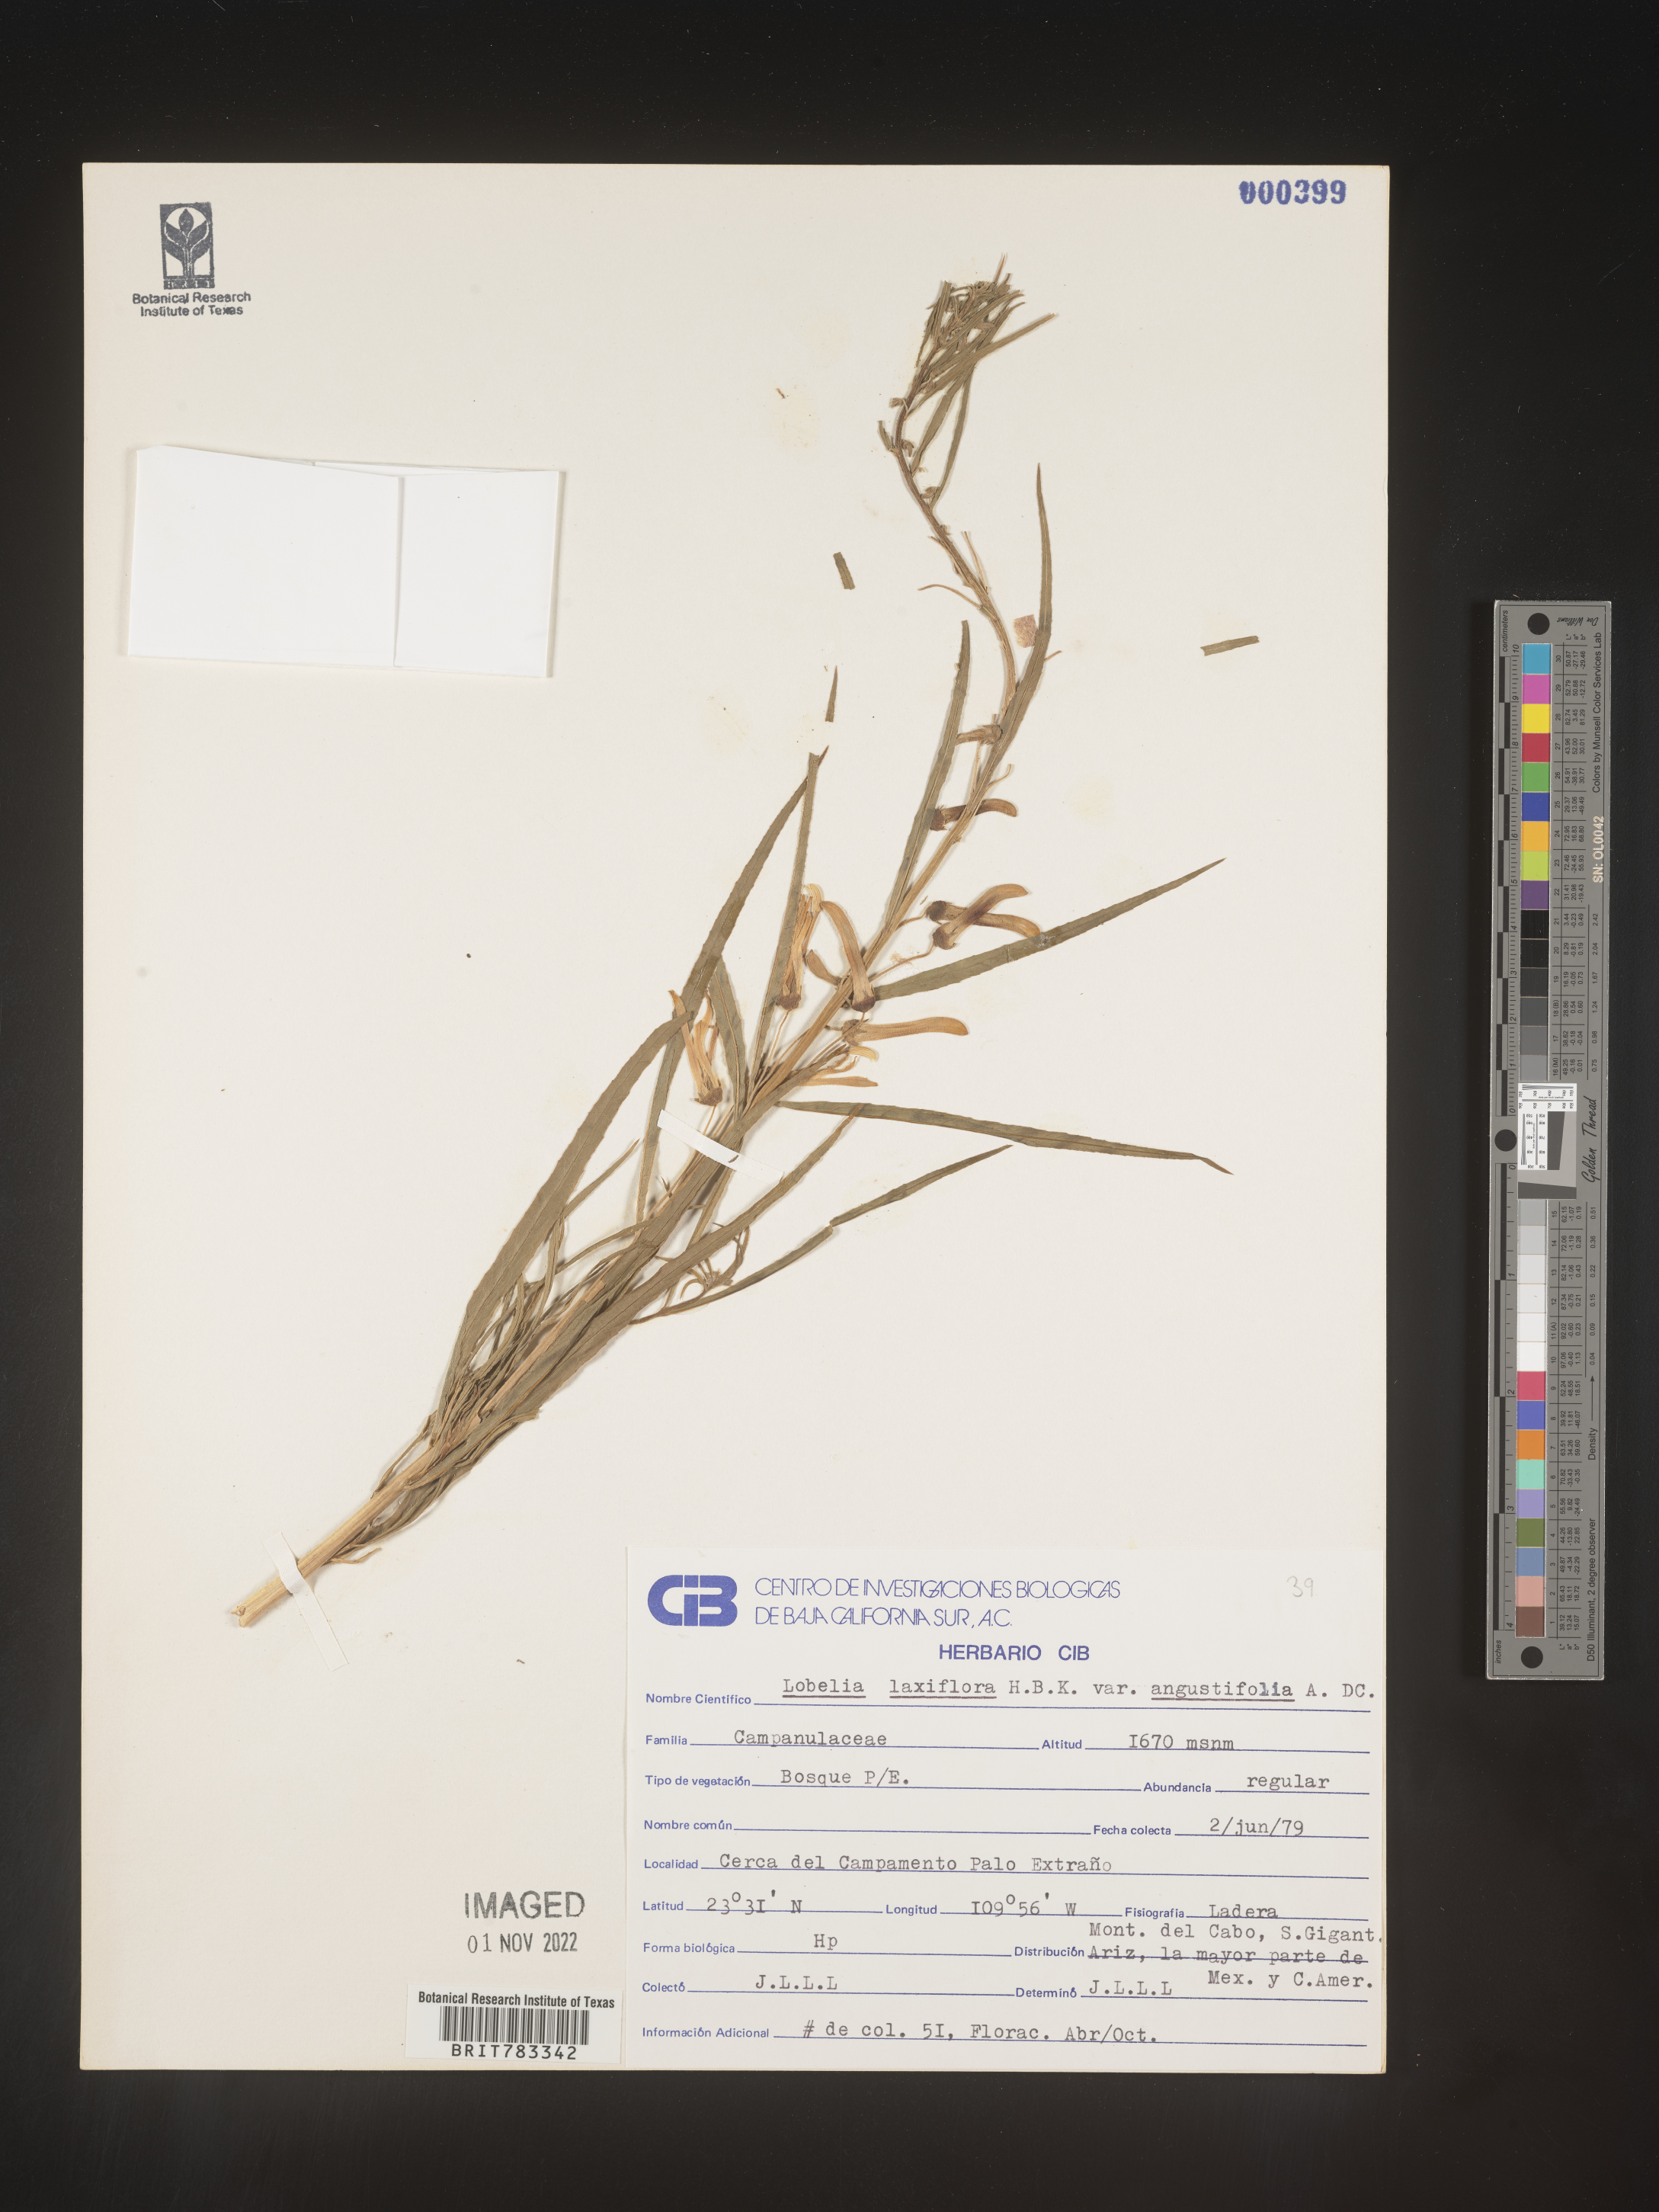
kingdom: Plantae
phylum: Tracheophyta
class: Magnoliopsida
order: Asterales
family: Campanulaceae
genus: Lobelia
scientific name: Lobelia
